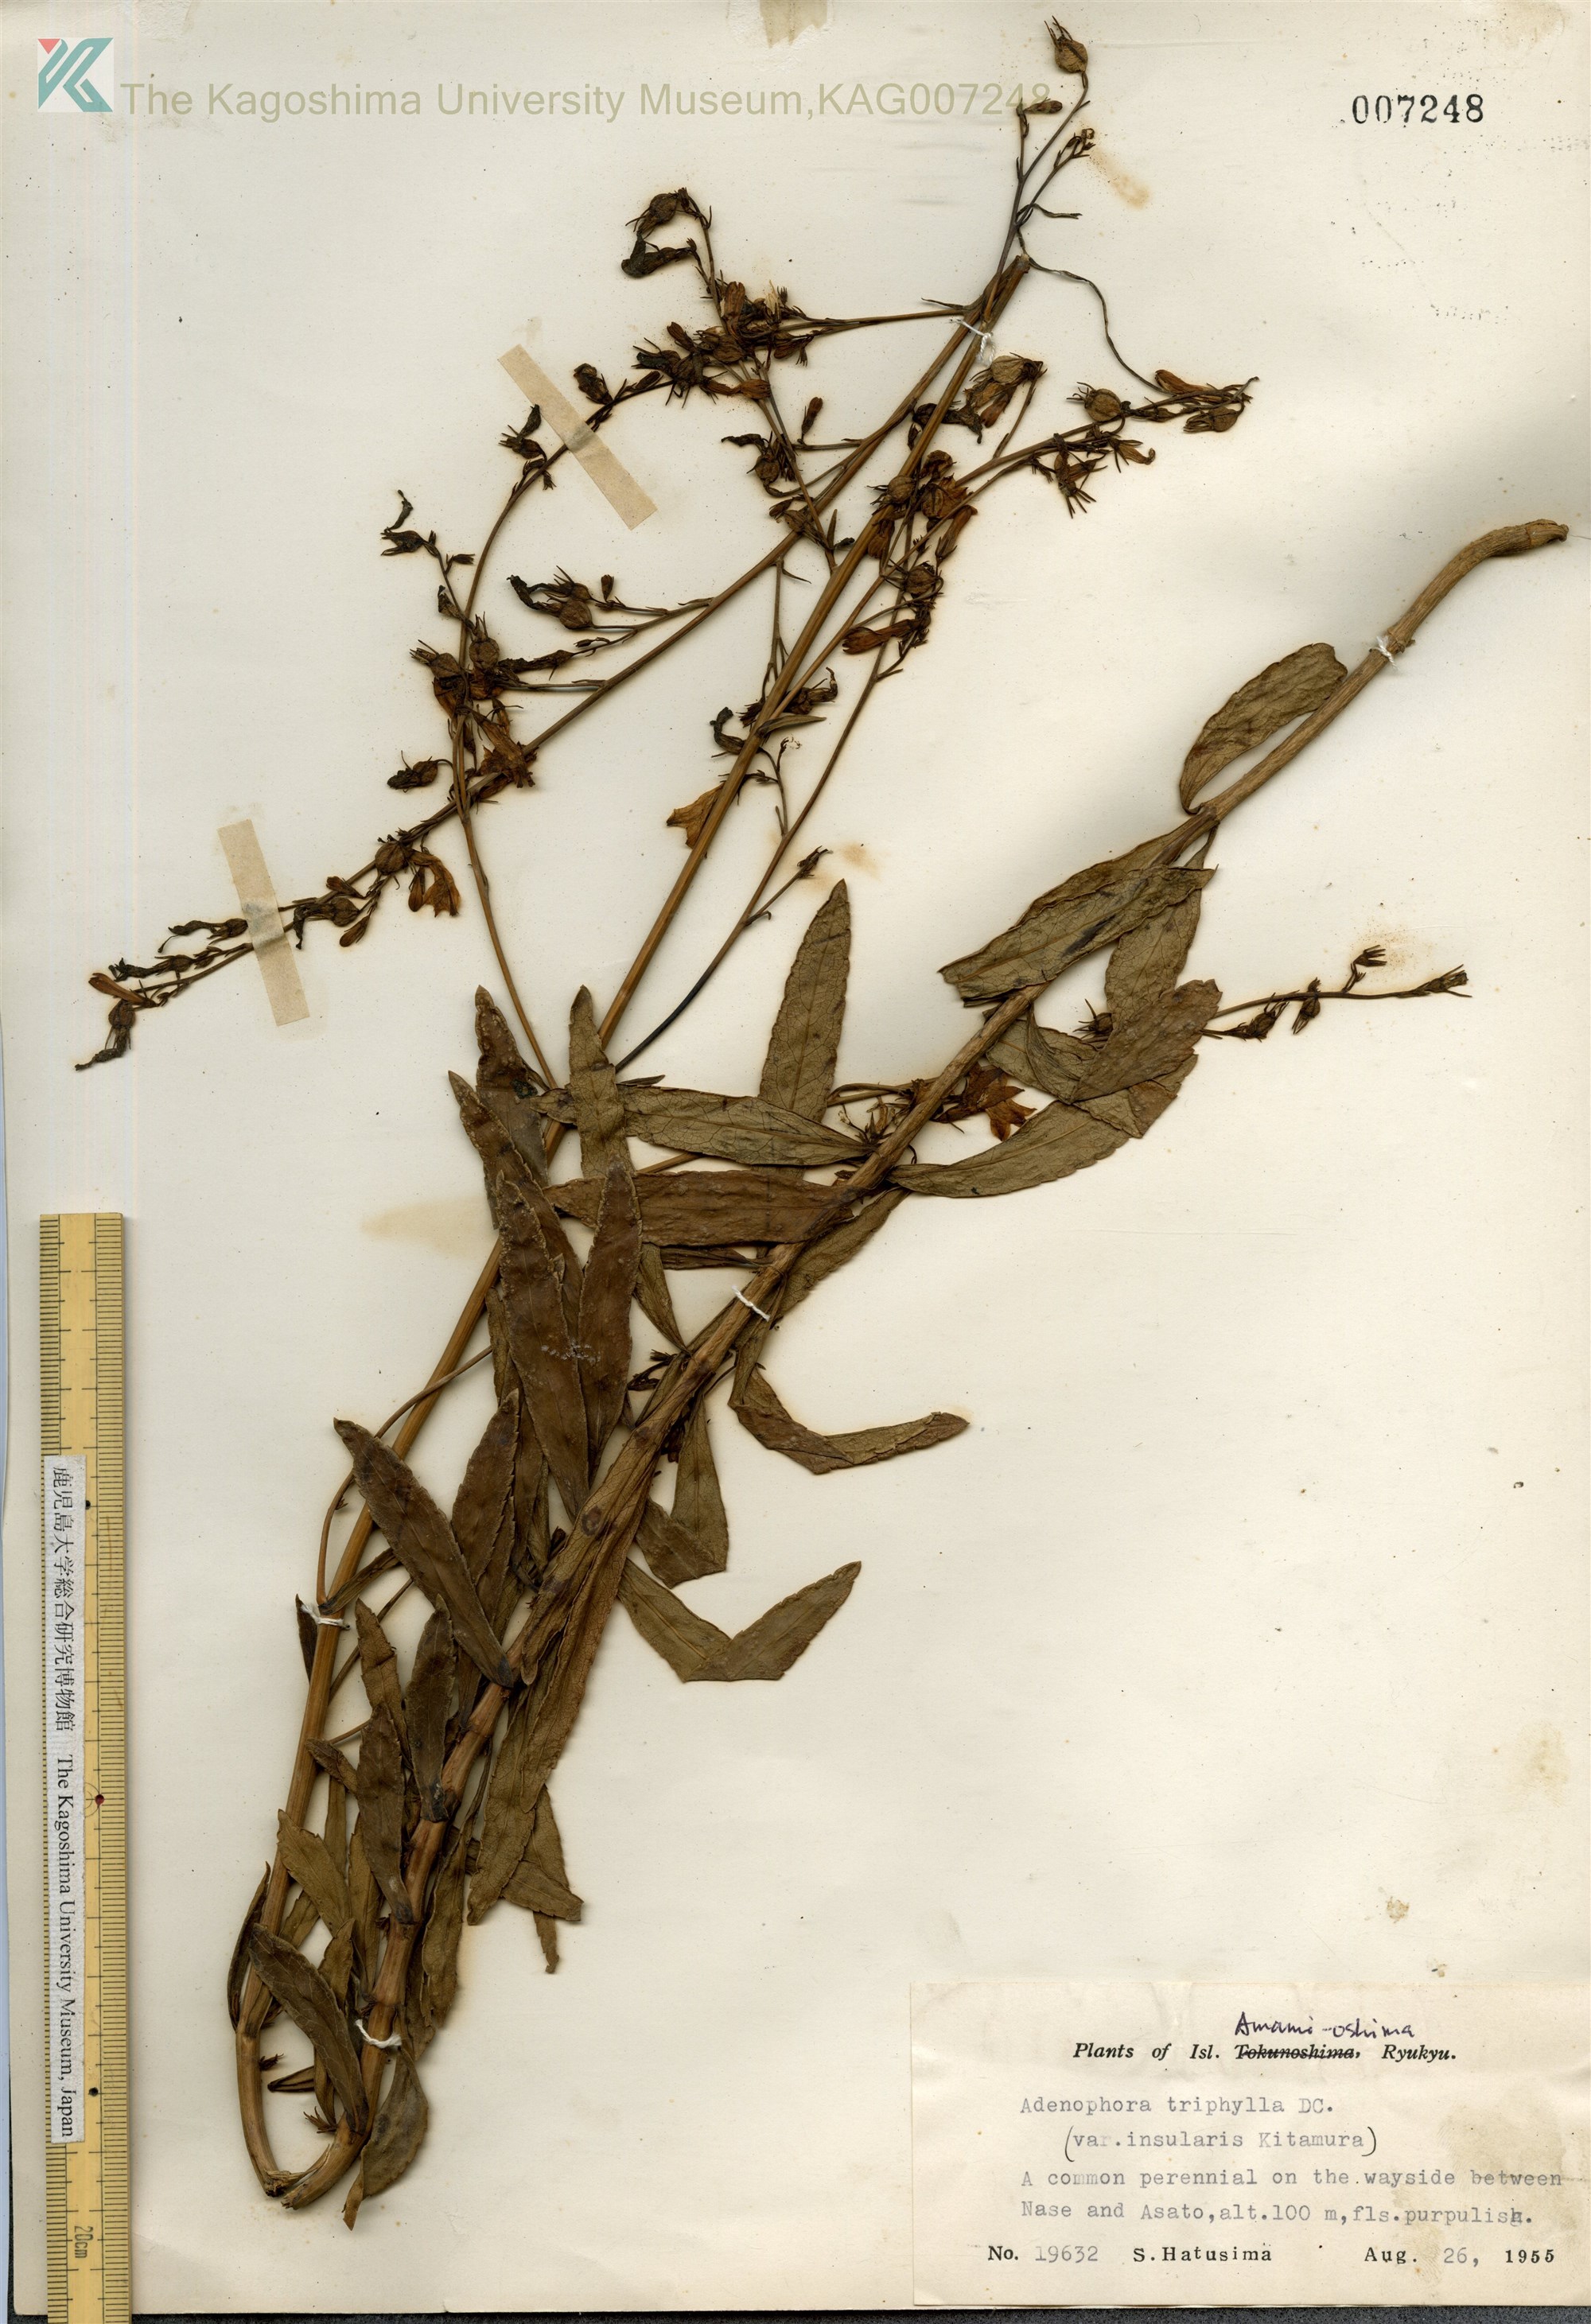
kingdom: Plantae
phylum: Tracheophyta
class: Magnoliopsida
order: Asterales
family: Campanulaceae
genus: Adenophora
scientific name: Adenophora tashiroi
